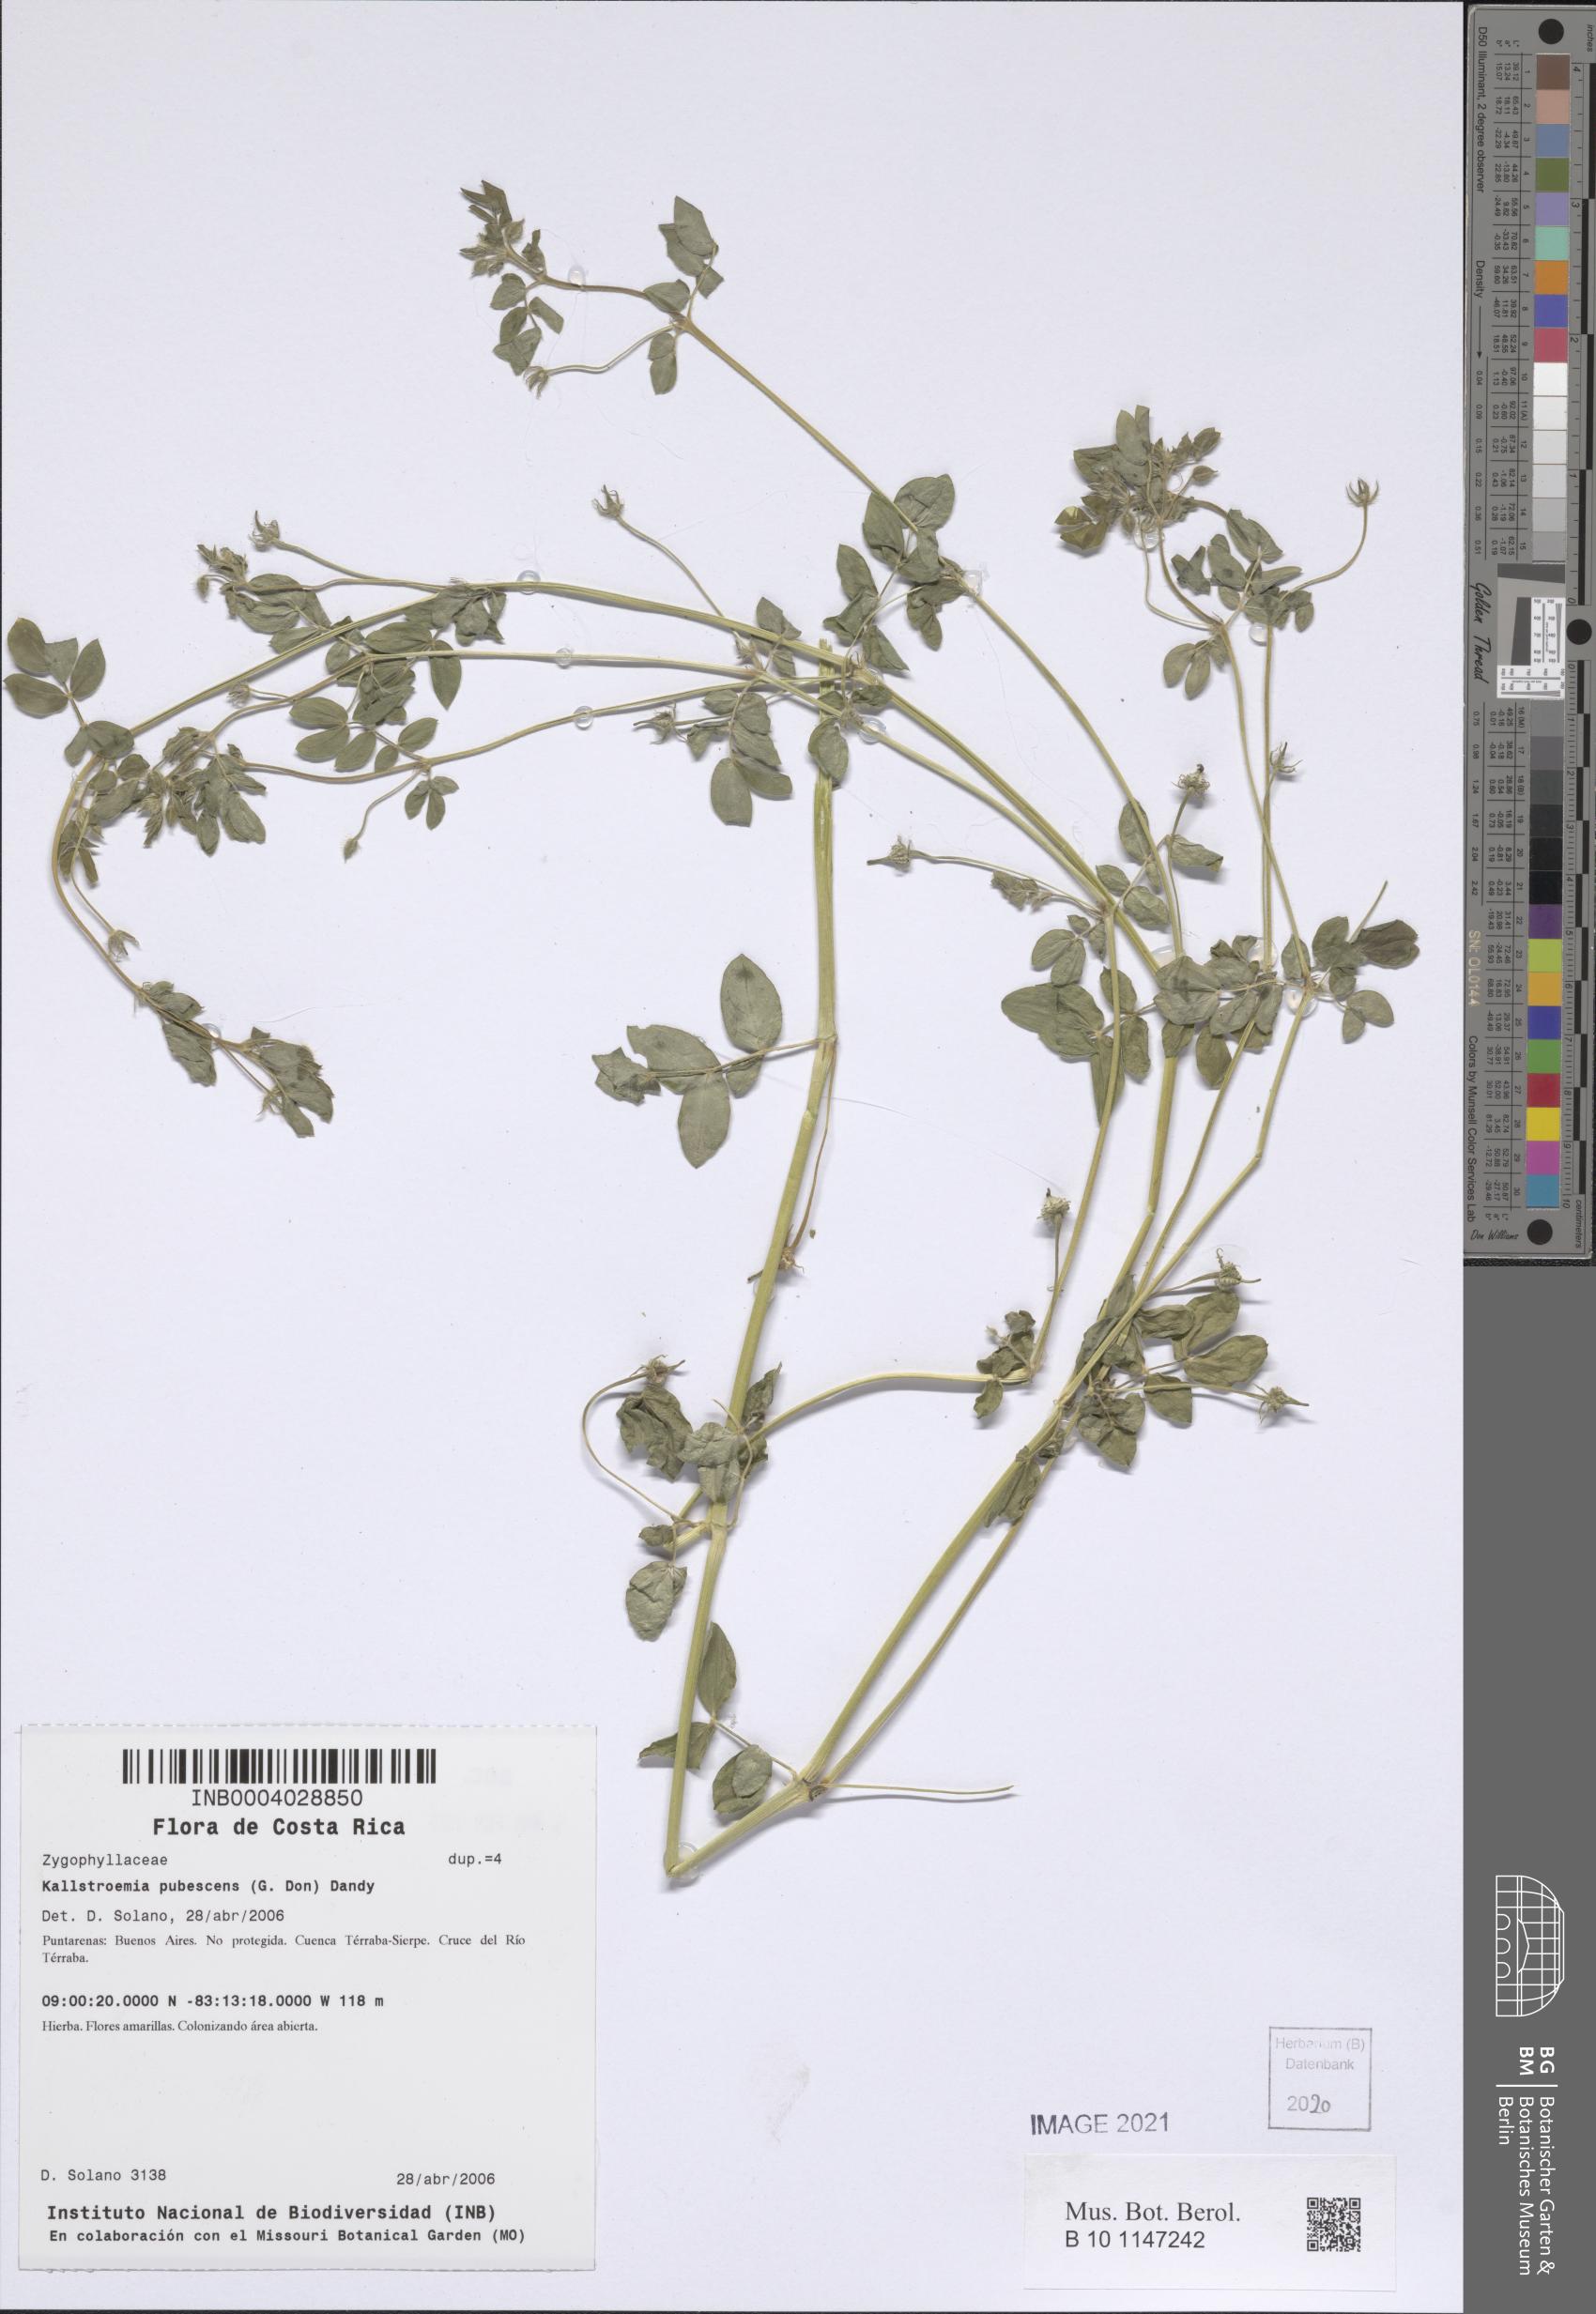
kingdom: Plantae
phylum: Tracheophyta
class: Magnoliopsida
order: Zygophyllales
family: Zygophyllaceae
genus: Kallstroemia
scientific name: Kallstroemia pubescens
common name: Caribbean caltrop
